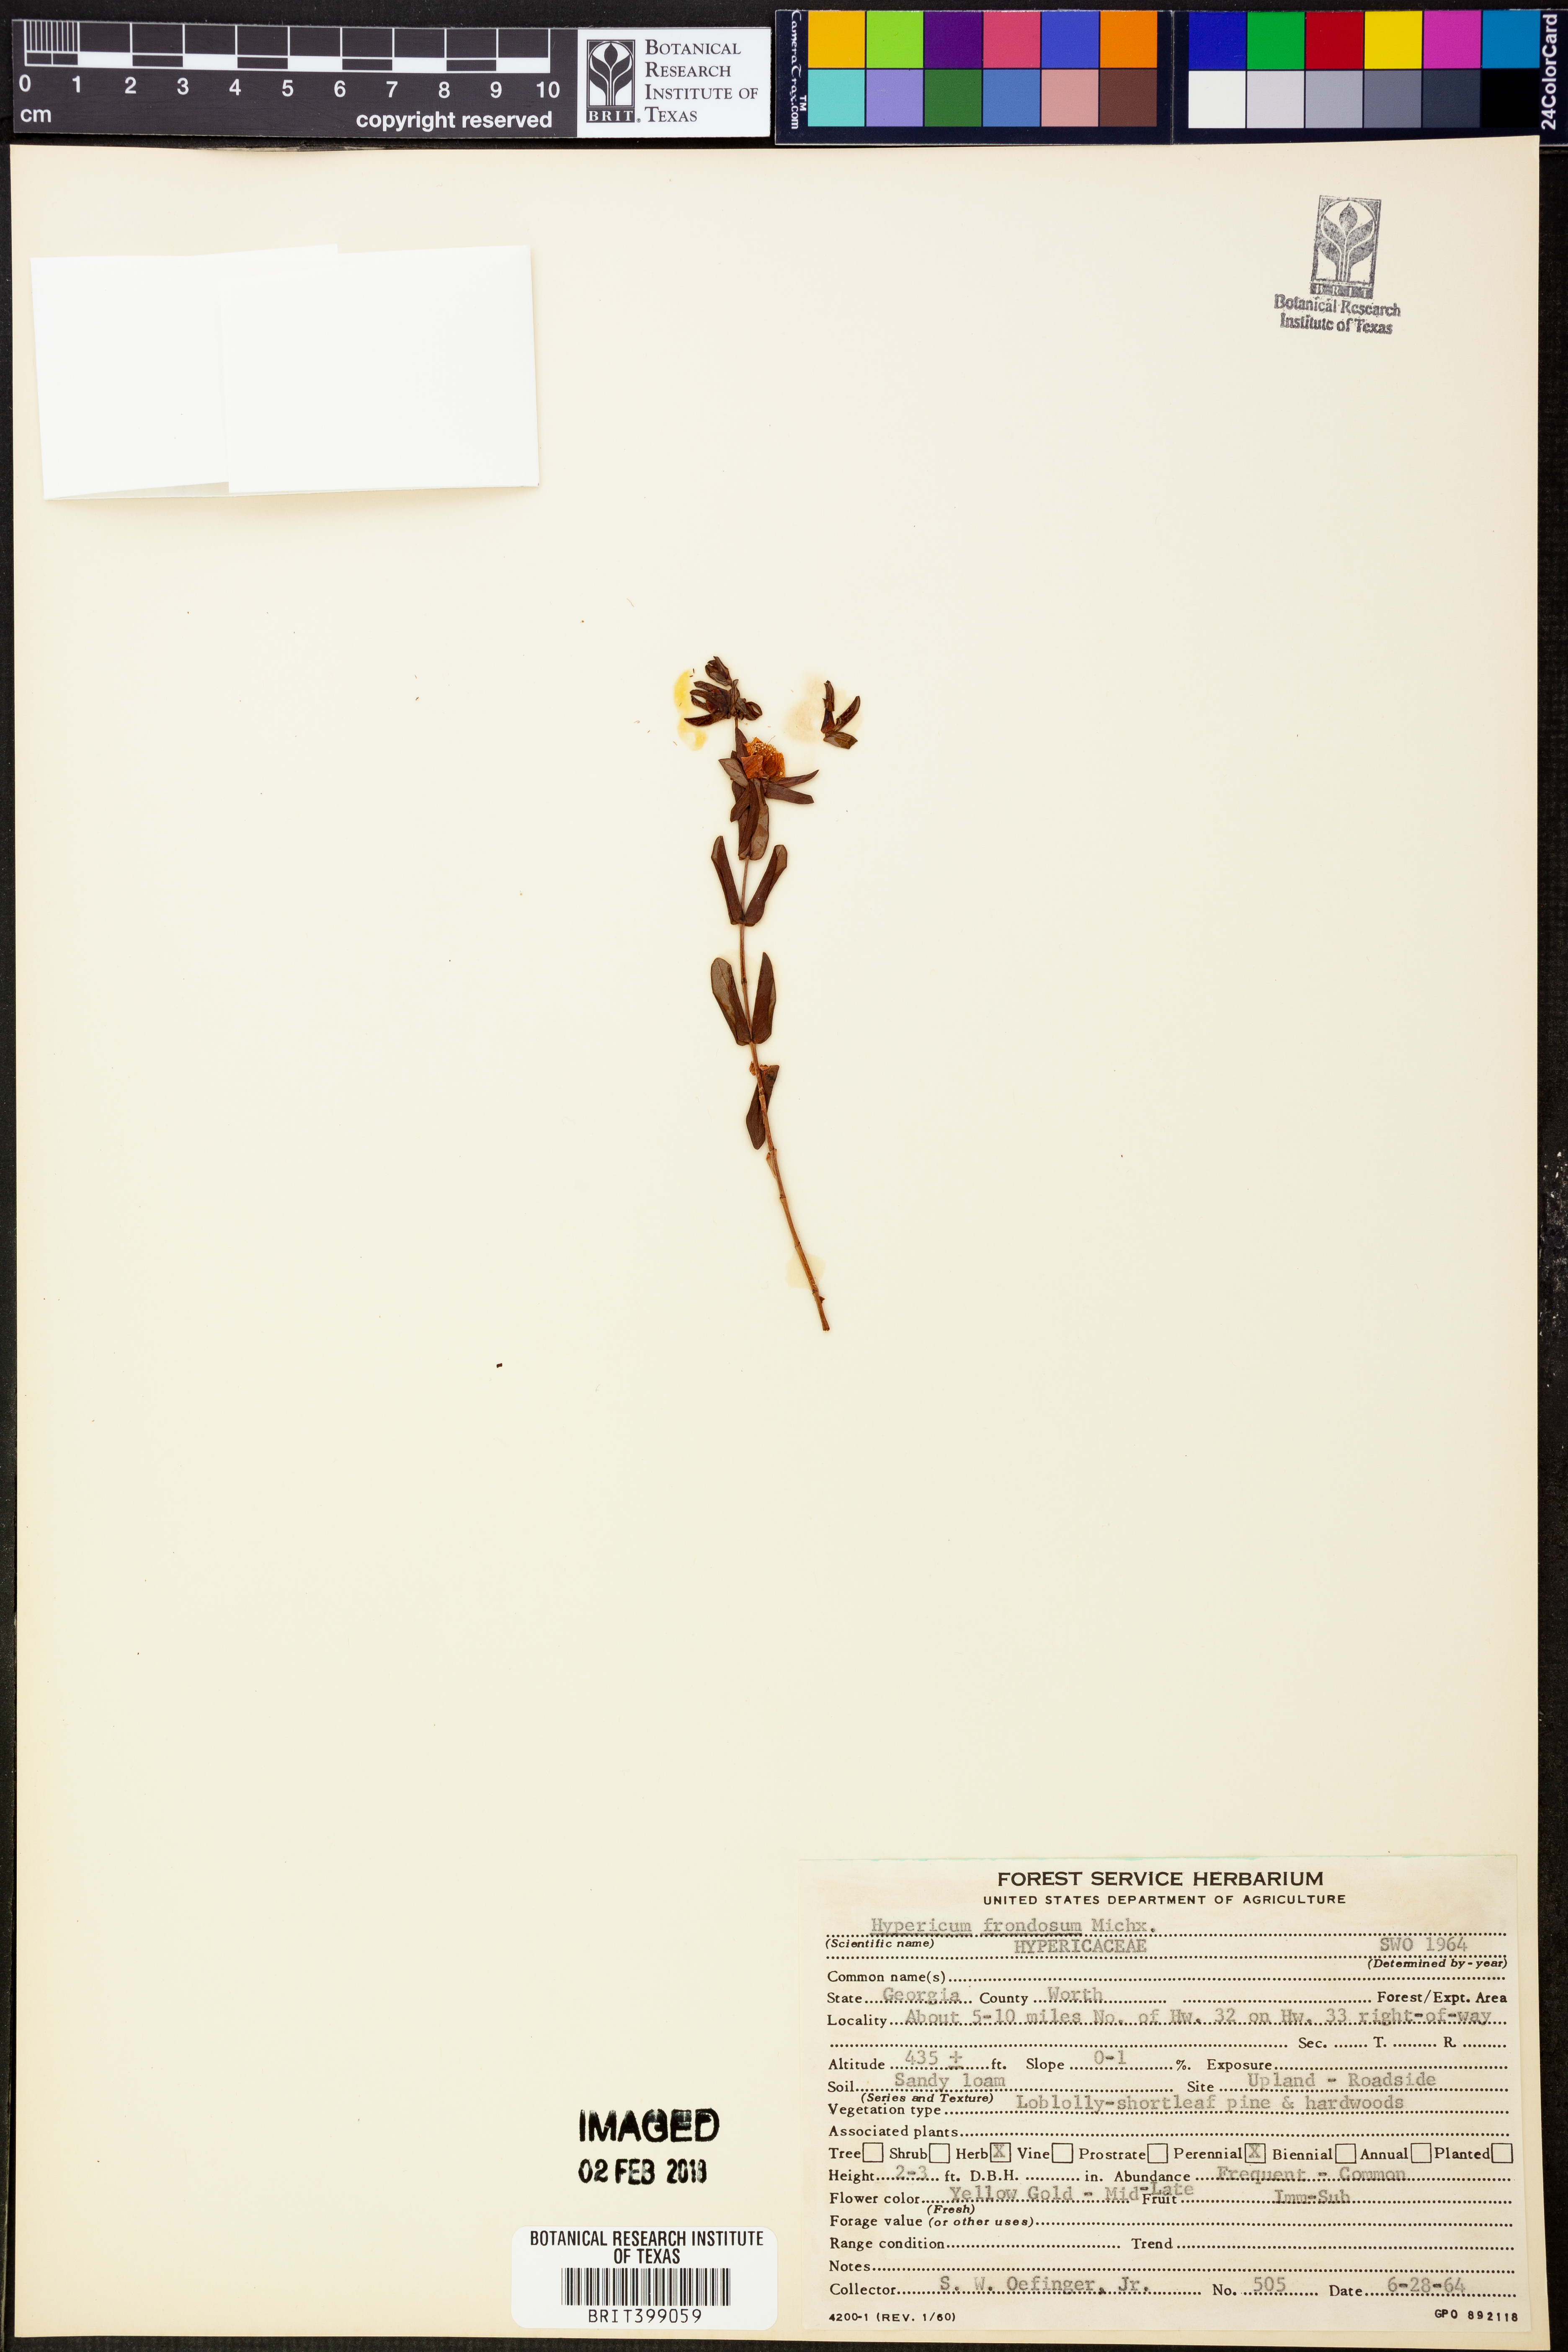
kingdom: Plantae
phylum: Tracheophyta
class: Magnoliopsida
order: Malpighiales
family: Hypericaceae
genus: Hypericum
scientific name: Hypericum frondosum
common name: Golden st. john's-wort
